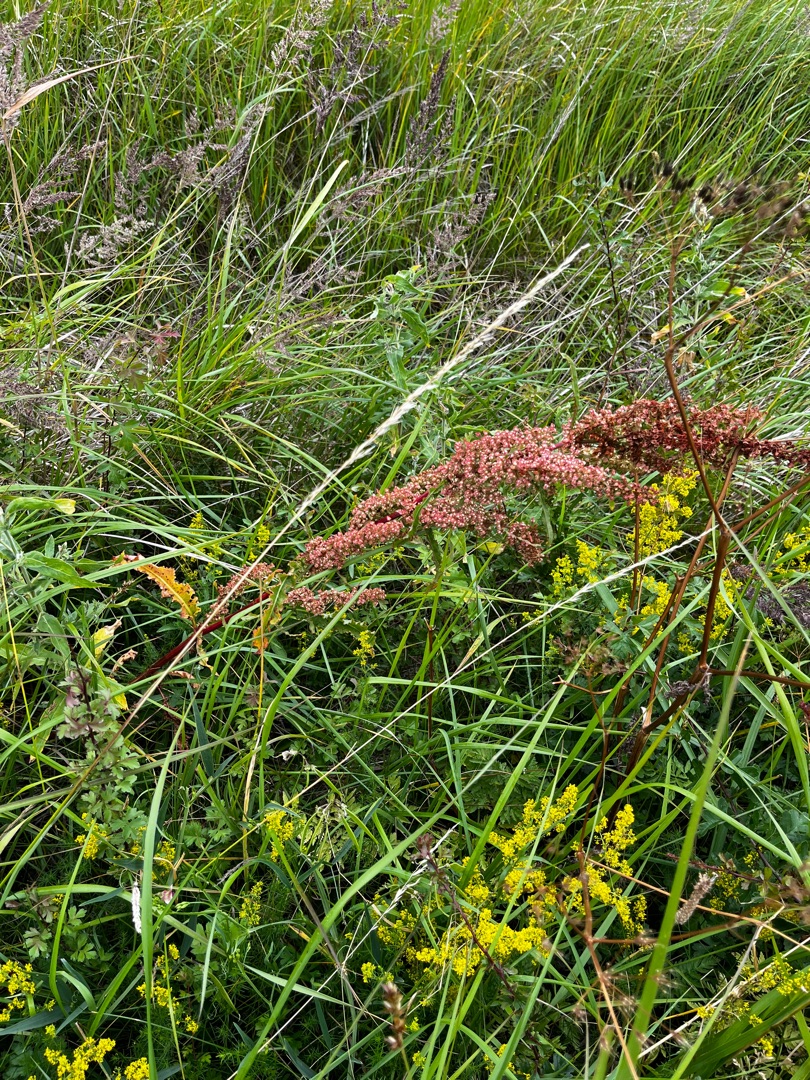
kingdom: Plantae
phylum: Tracheophyta
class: Magnoliopsida
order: Caryophyllales
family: Polygonaceae
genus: Rumex
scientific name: Rumex crispus
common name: Kruset skræppe
